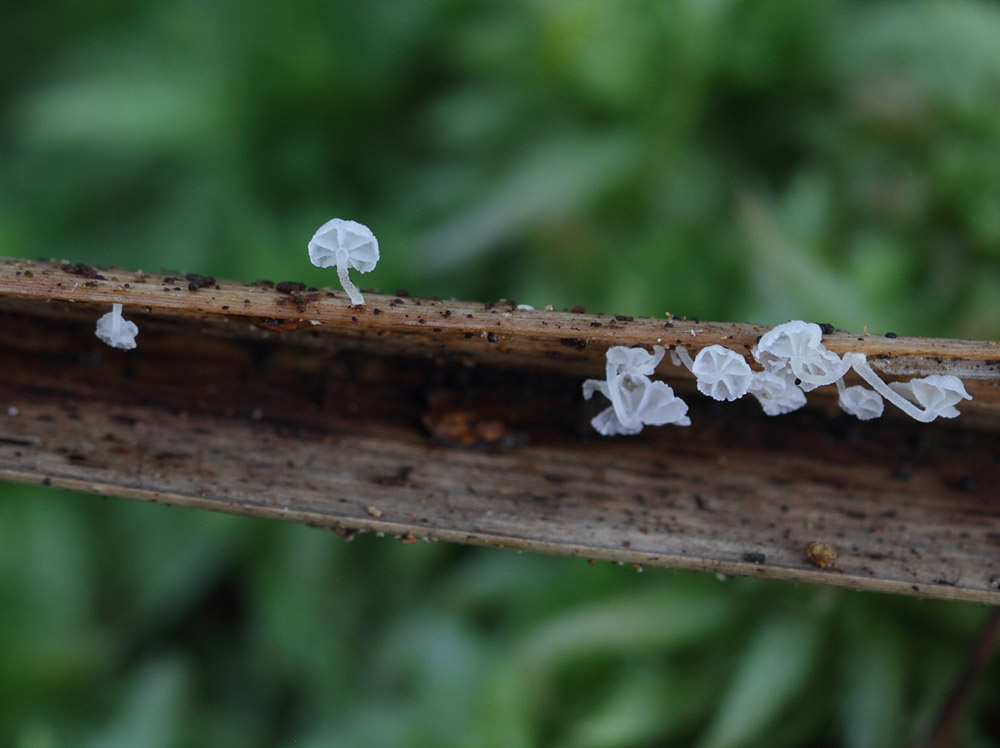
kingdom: Fungi
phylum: Basidiomycota
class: Agaricomycetes
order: Agaricales
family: Mycenaceae
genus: Resinomycena
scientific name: Resinomycena saccharifera
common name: sukkerhat
